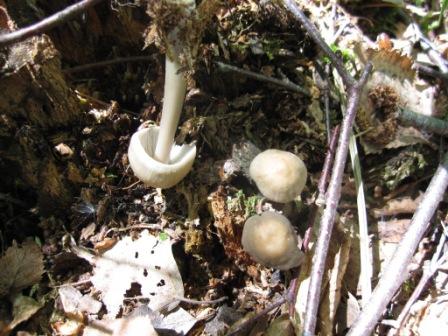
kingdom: Fungi
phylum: Basidiomycota
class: Agaricomycetes
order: Agaricales
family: Mycenaceae
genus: Mycena
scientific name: Mycena galericulata
